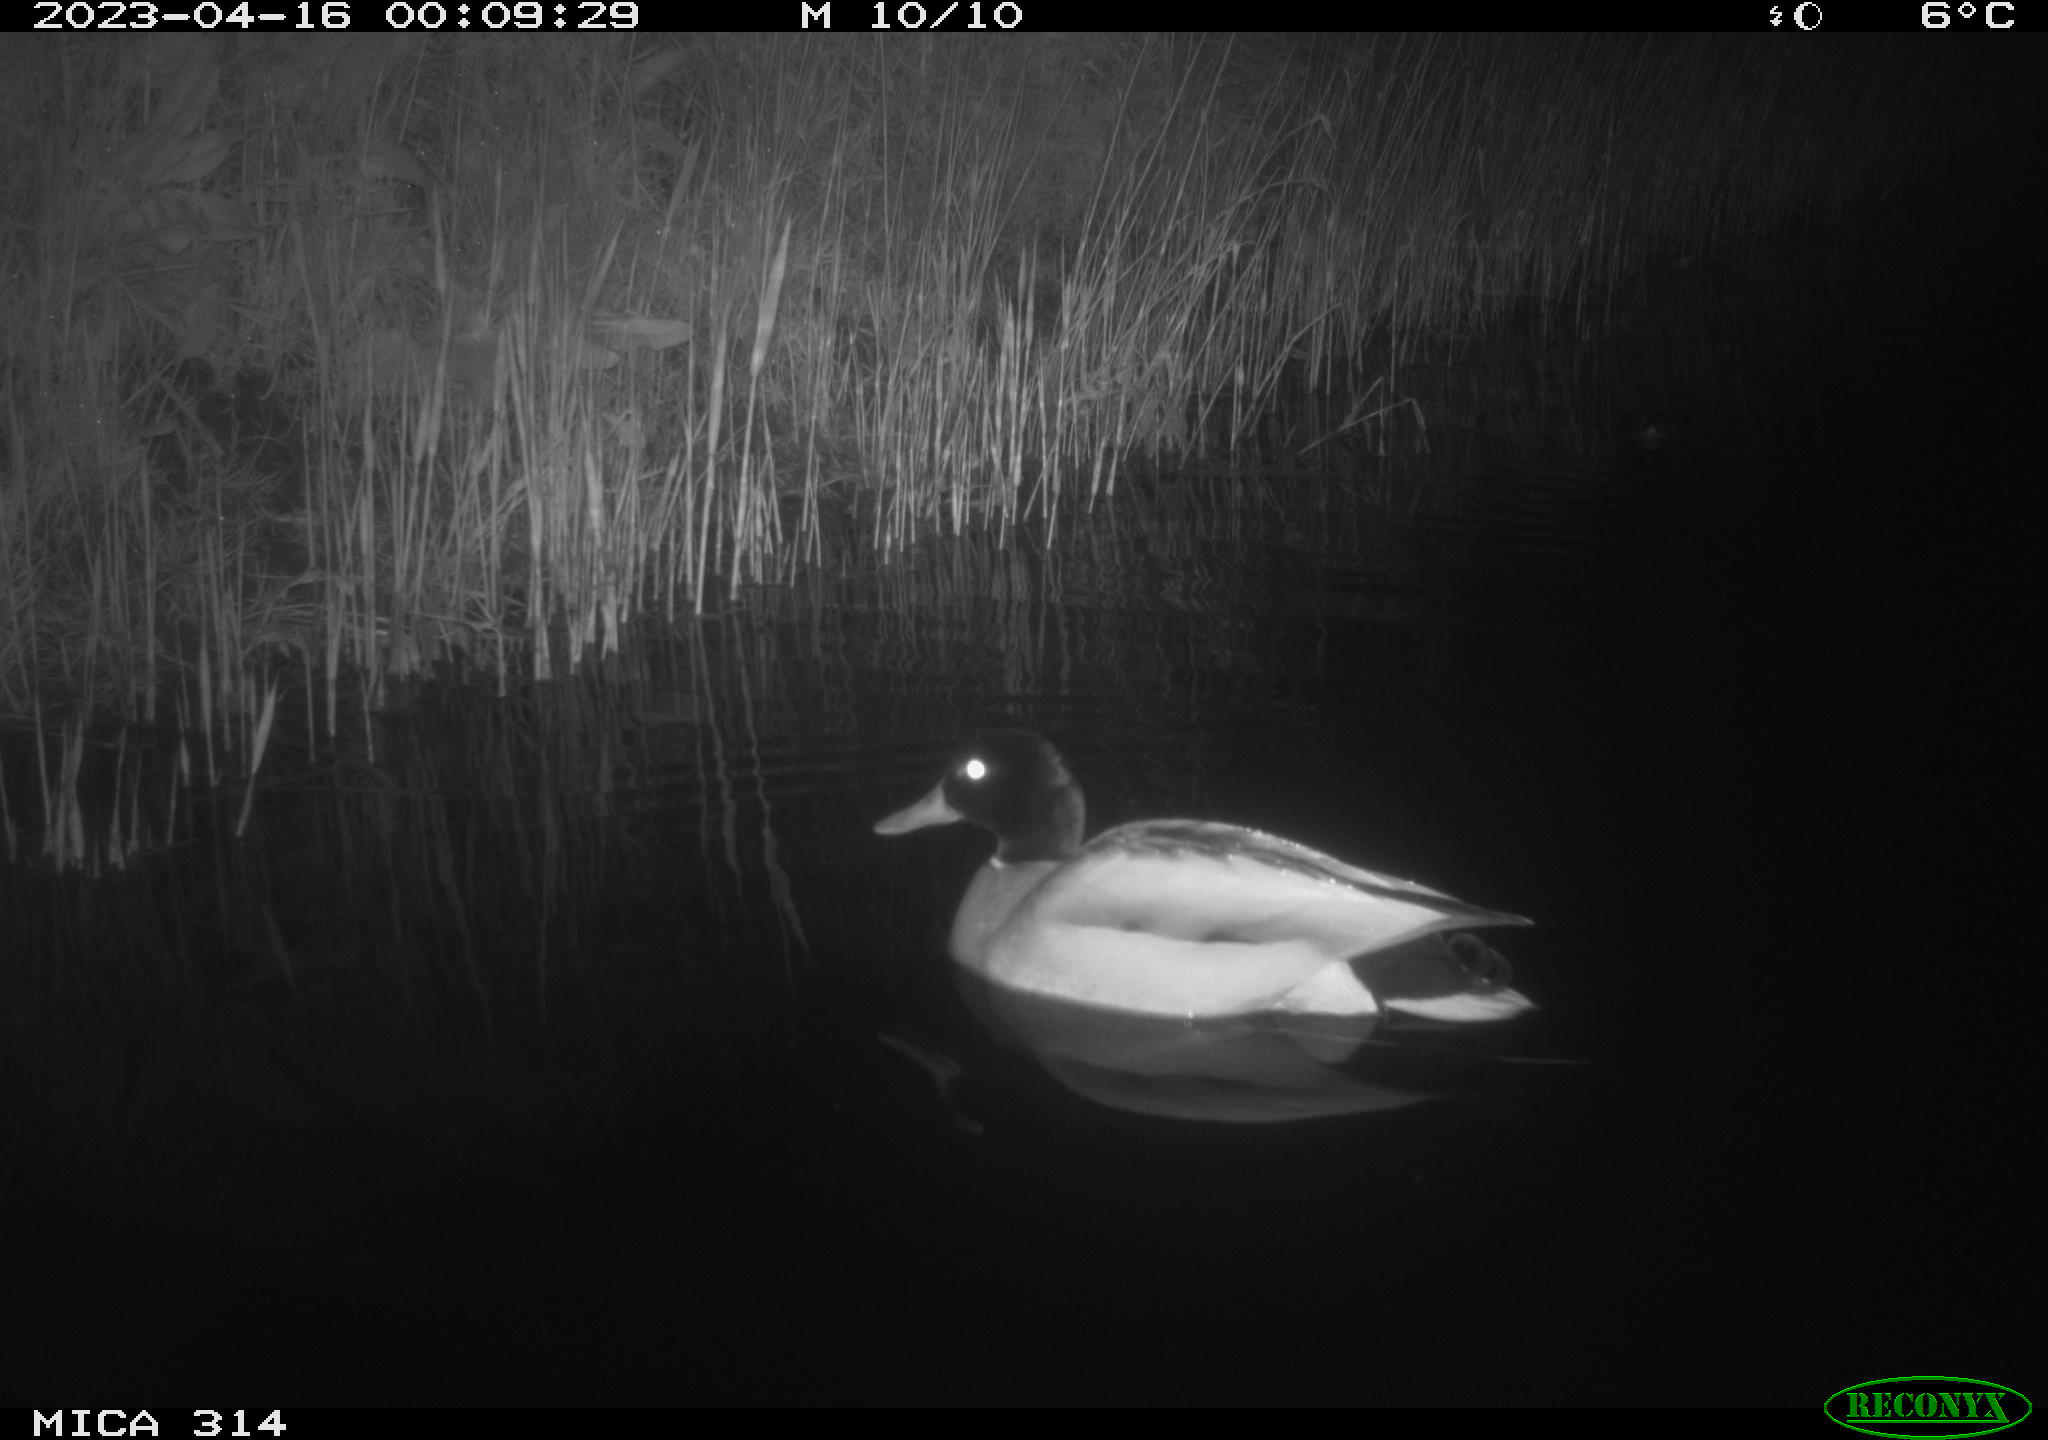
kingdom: Animalia
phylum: Chordata
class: Aves
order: Anseriformes
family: Anatidae
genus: Anas
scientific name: Anas
